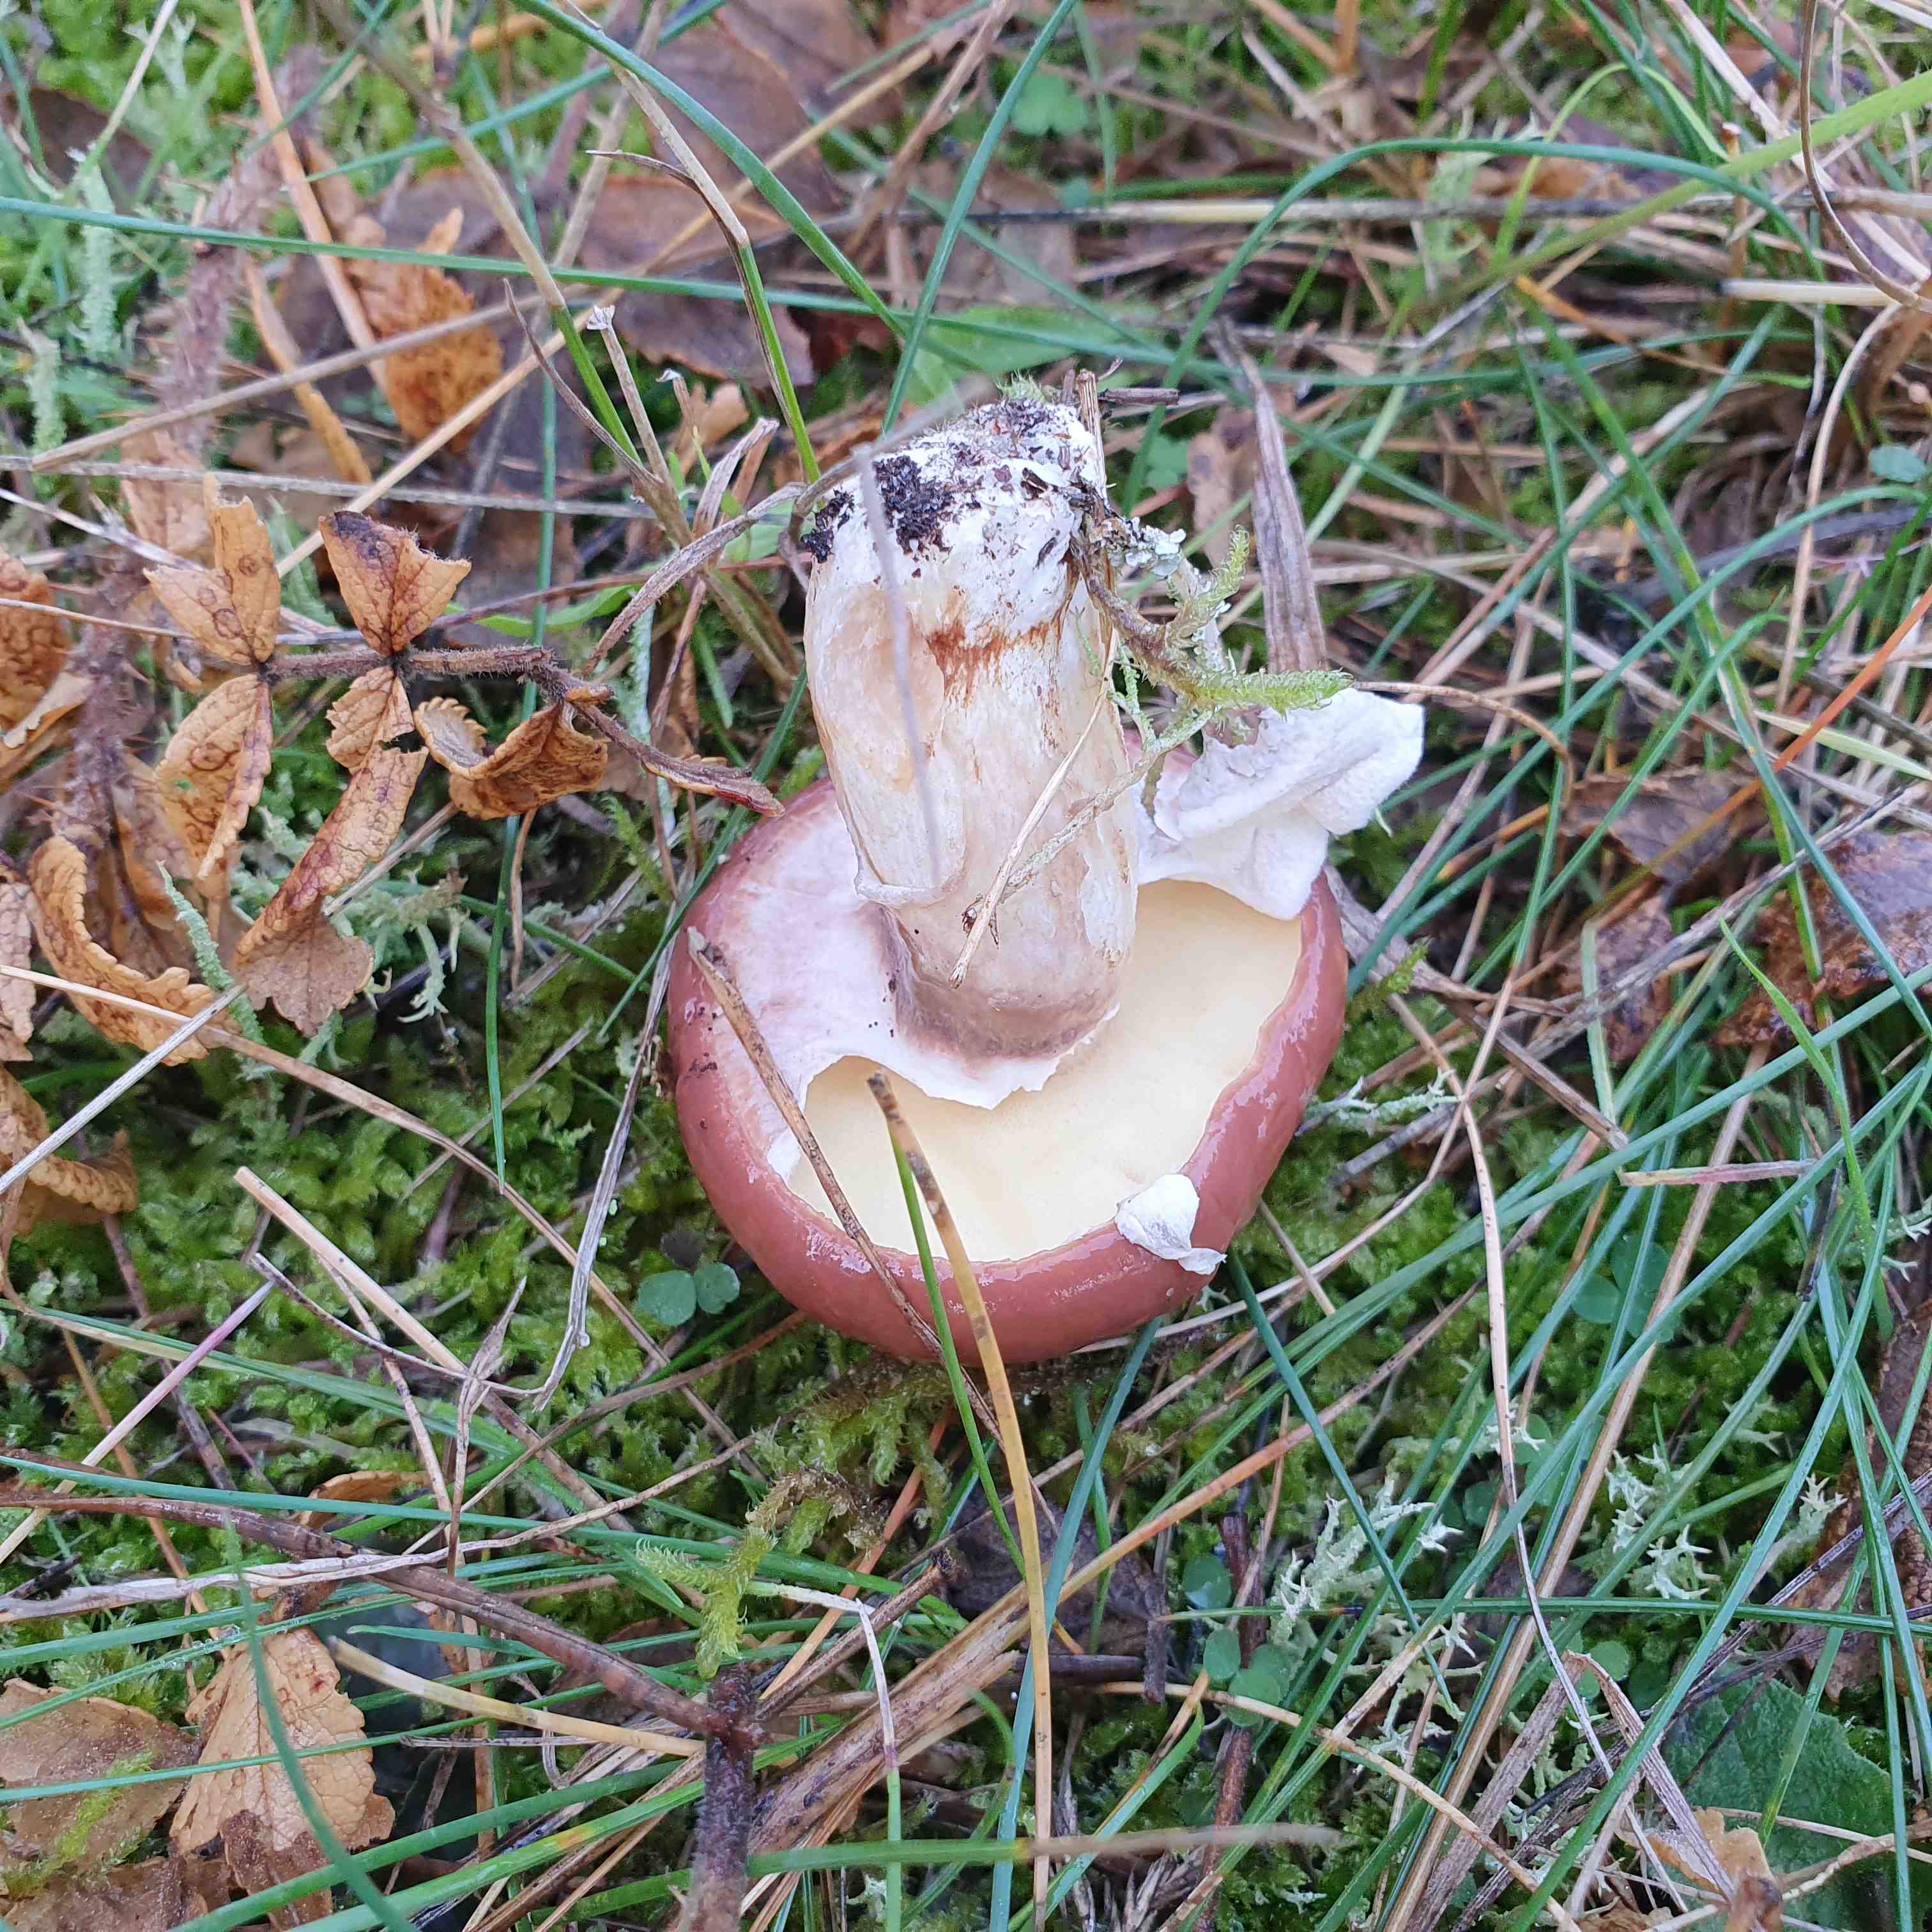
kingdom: Fungi
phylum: Basidiomycota
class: Agaricomycetes
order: Boletales
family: Suillaceae
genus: Suillus
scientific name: Suillus luteus
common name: brungul slimrørhat
